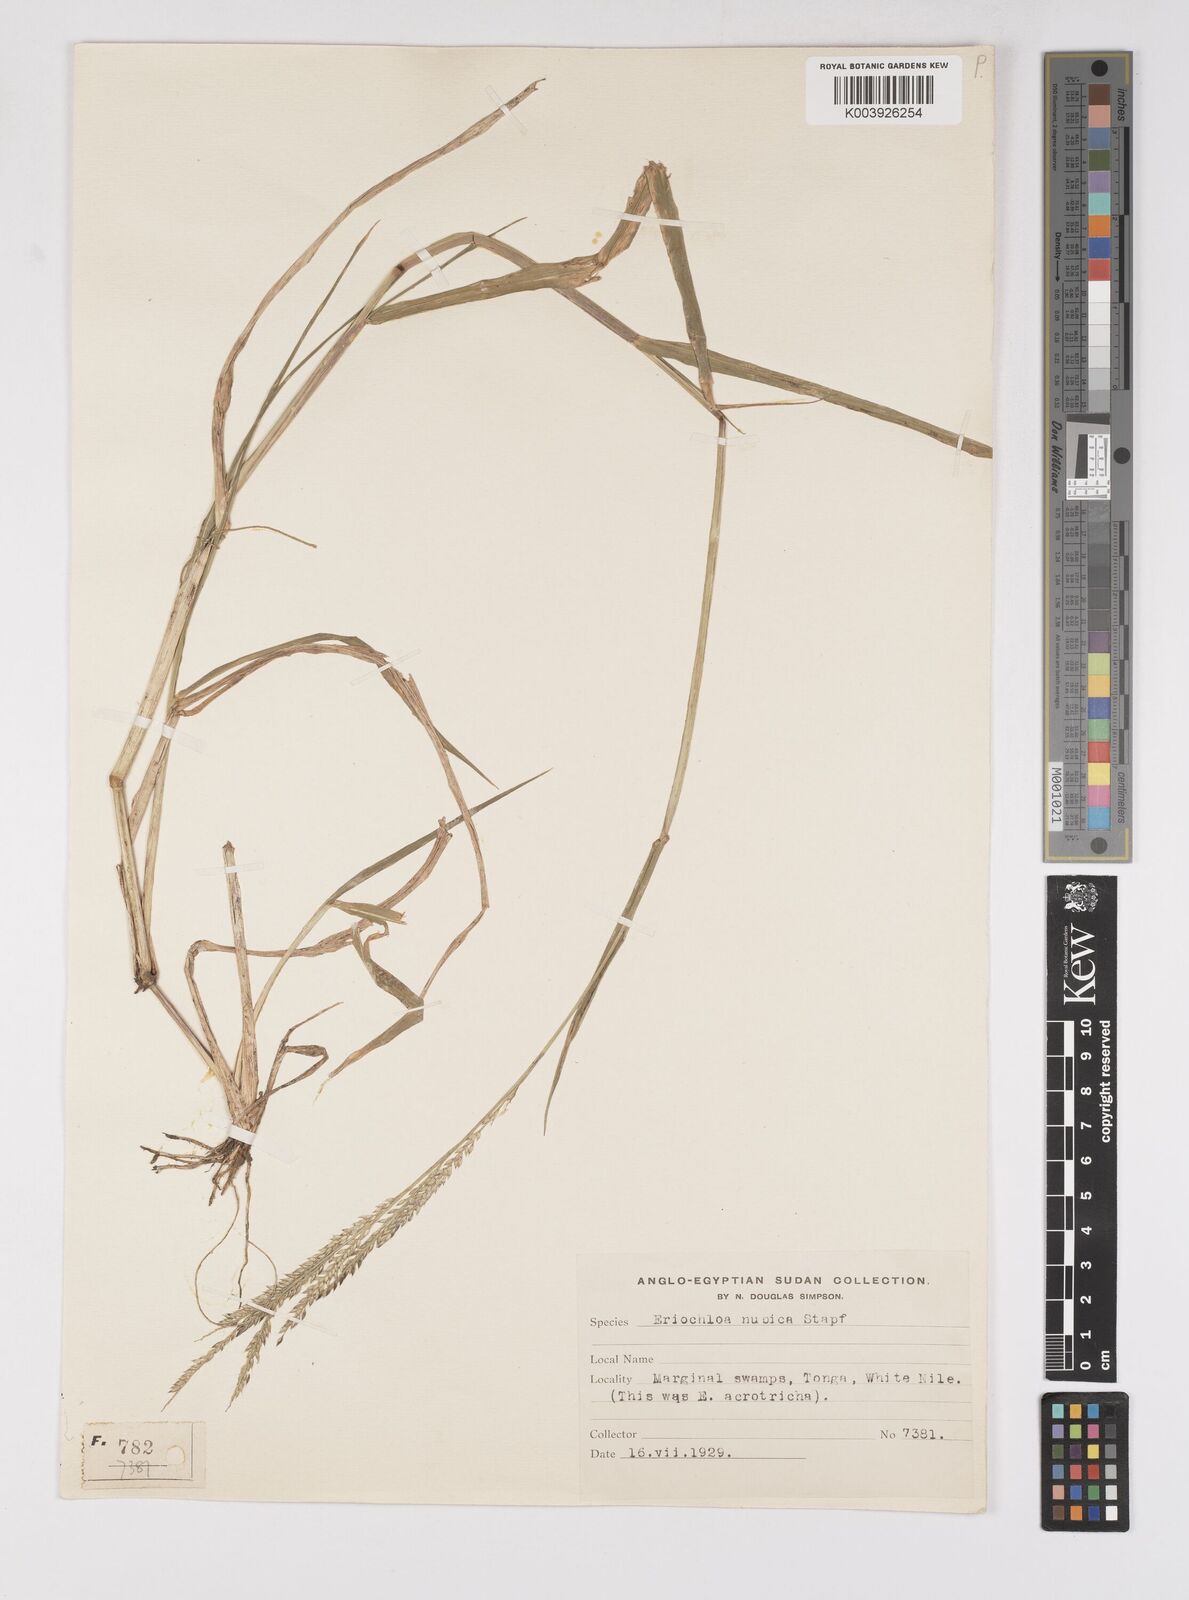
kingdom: Plantae
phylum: Tracheophyta
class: Liliopsida
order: Poales
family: Poaceae
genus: Eriochloa
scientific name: Eriochloa barbatus
